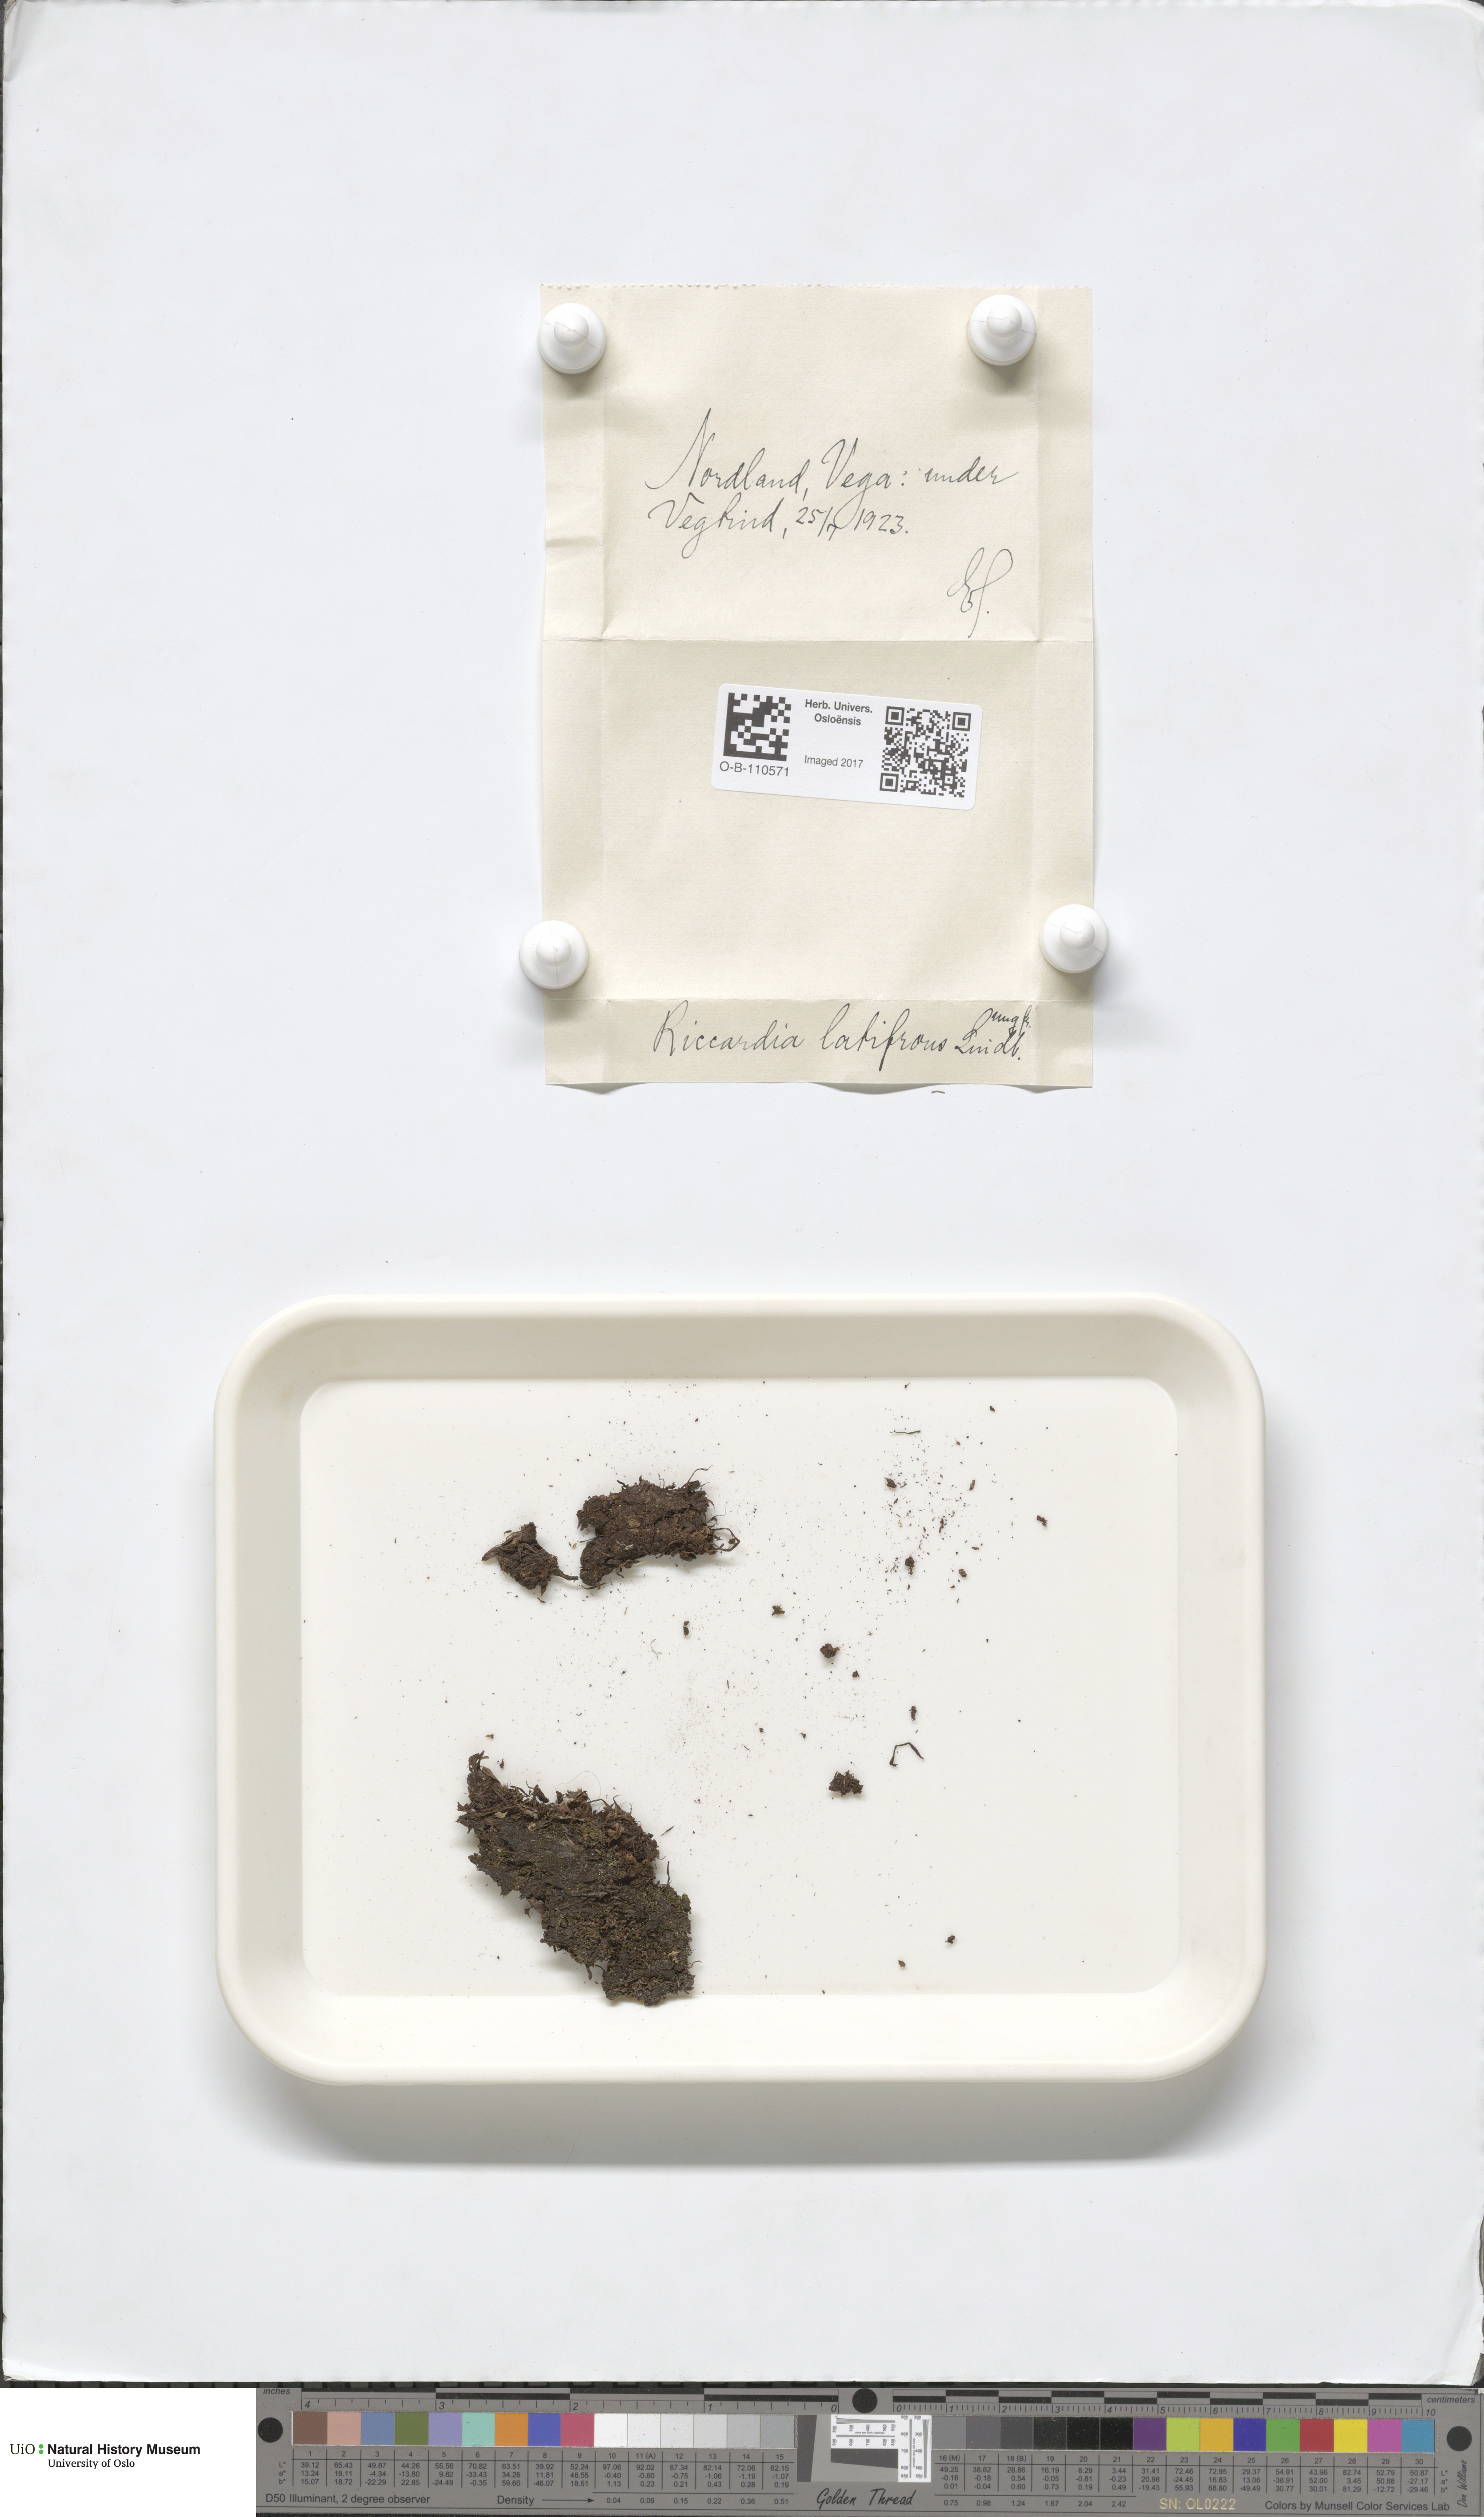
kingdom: Plantae
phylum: Marchantiophyta
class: Jungermanniopsida
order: Metzgeriales
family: Aneuraceae
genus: Riccardia
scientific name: Riccardia latifrons
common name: Bog germanderwort
